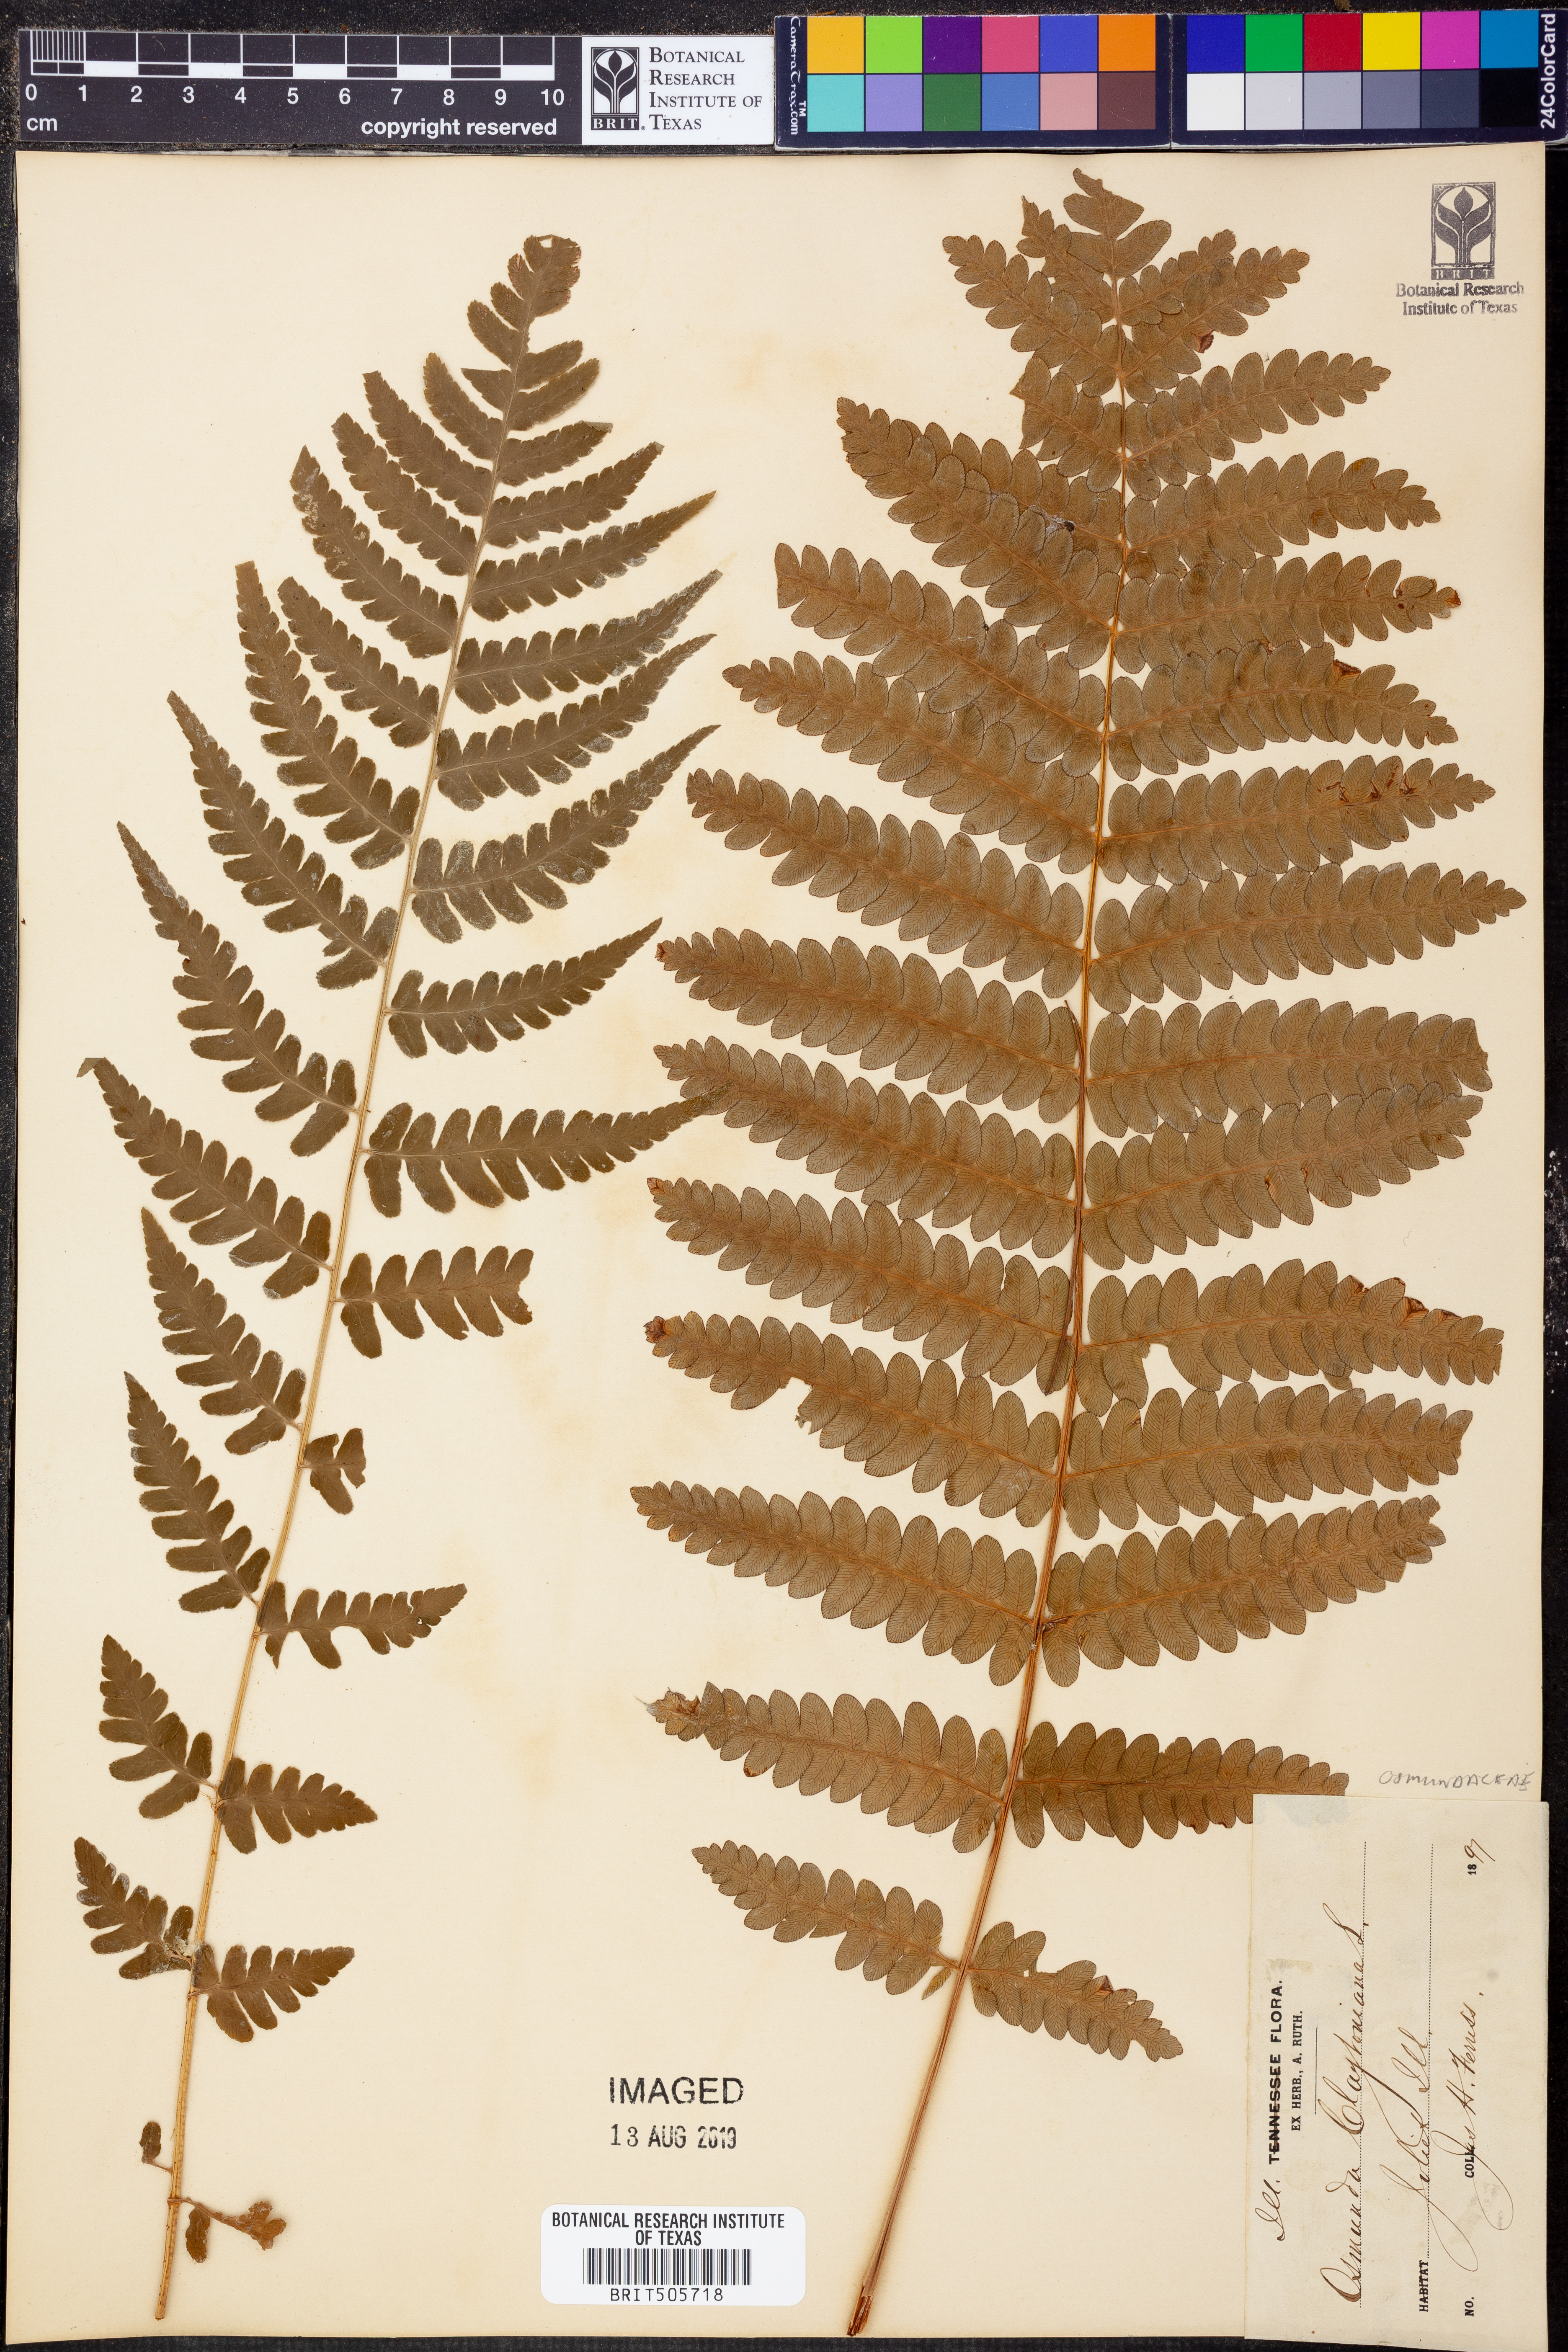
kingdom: Plantae
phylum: Tracheophyta
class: Polypodiopsida
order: Osmundales
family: Osmundaceae
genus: Claytosmunda
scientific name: Claytosmunda claytoniana
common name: Clayton's fern
